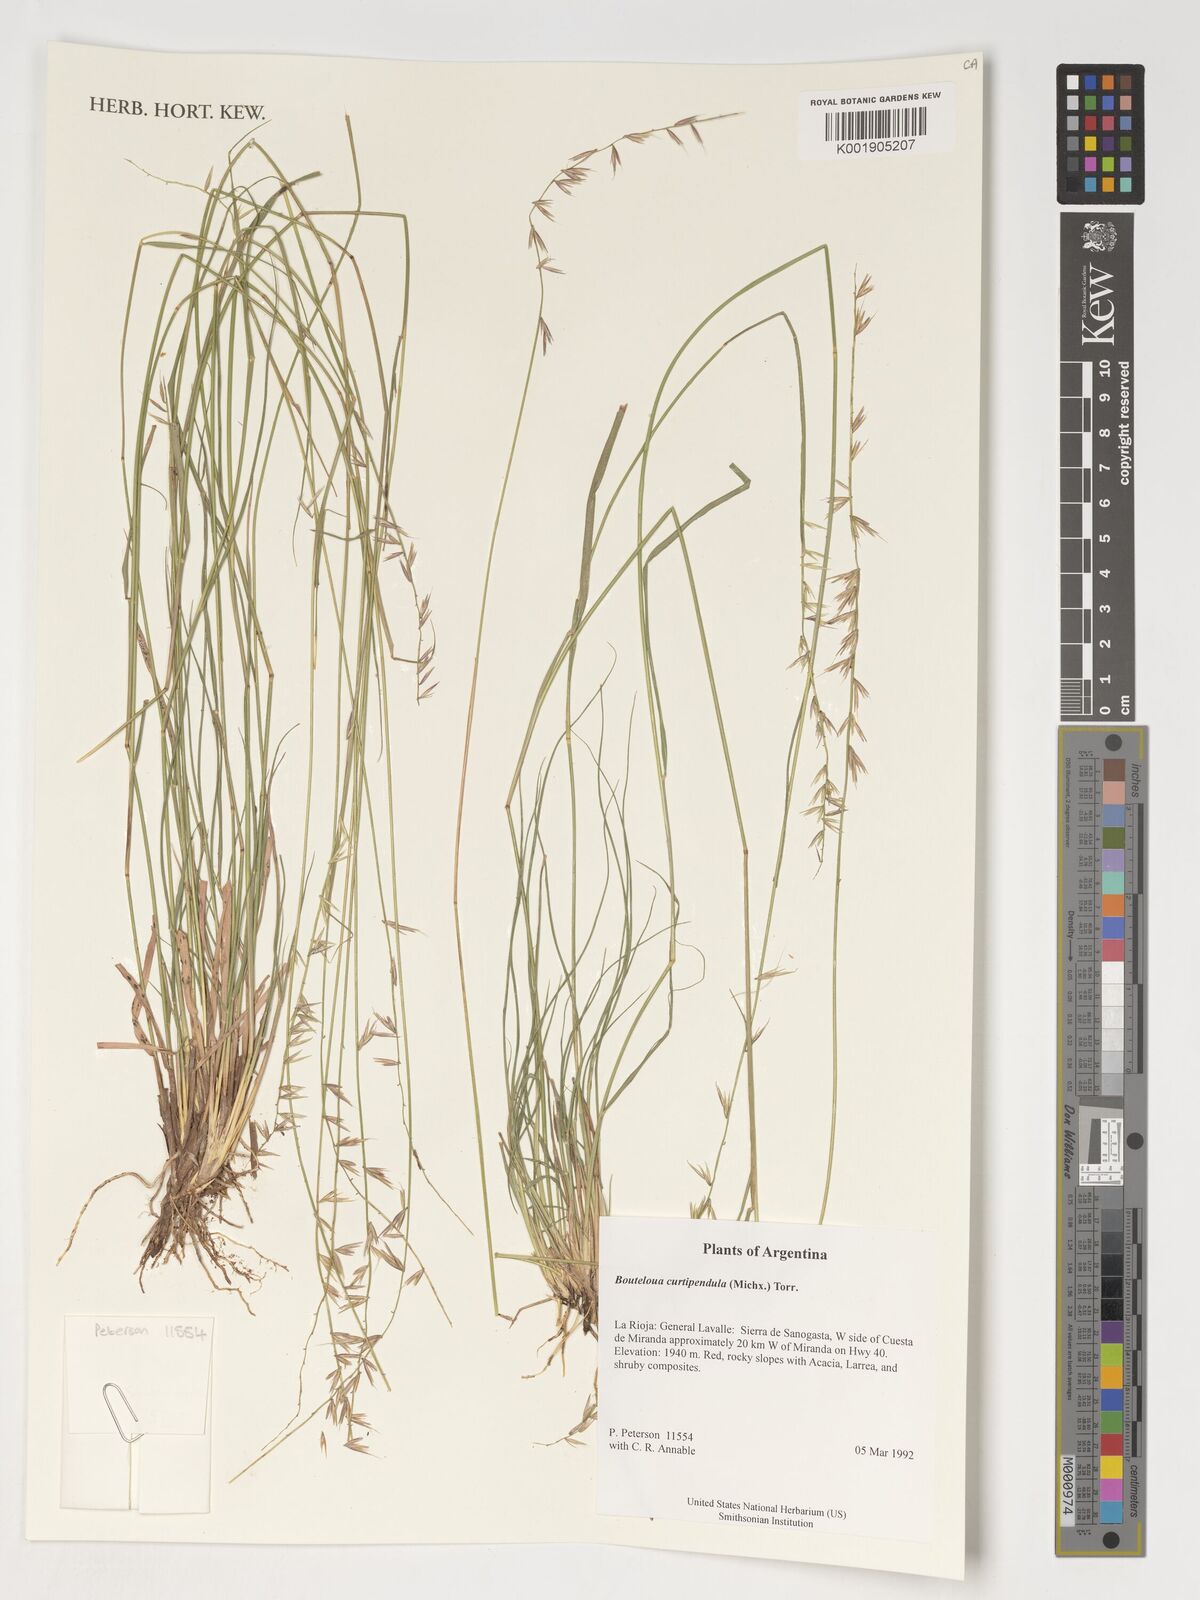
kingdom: Plantae
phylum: Tracheophyta
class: Liliopsida
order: Poales
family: Poaceae
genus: Bouteloua
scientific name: Bouteloua curtipendula
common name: Side-oats grama
